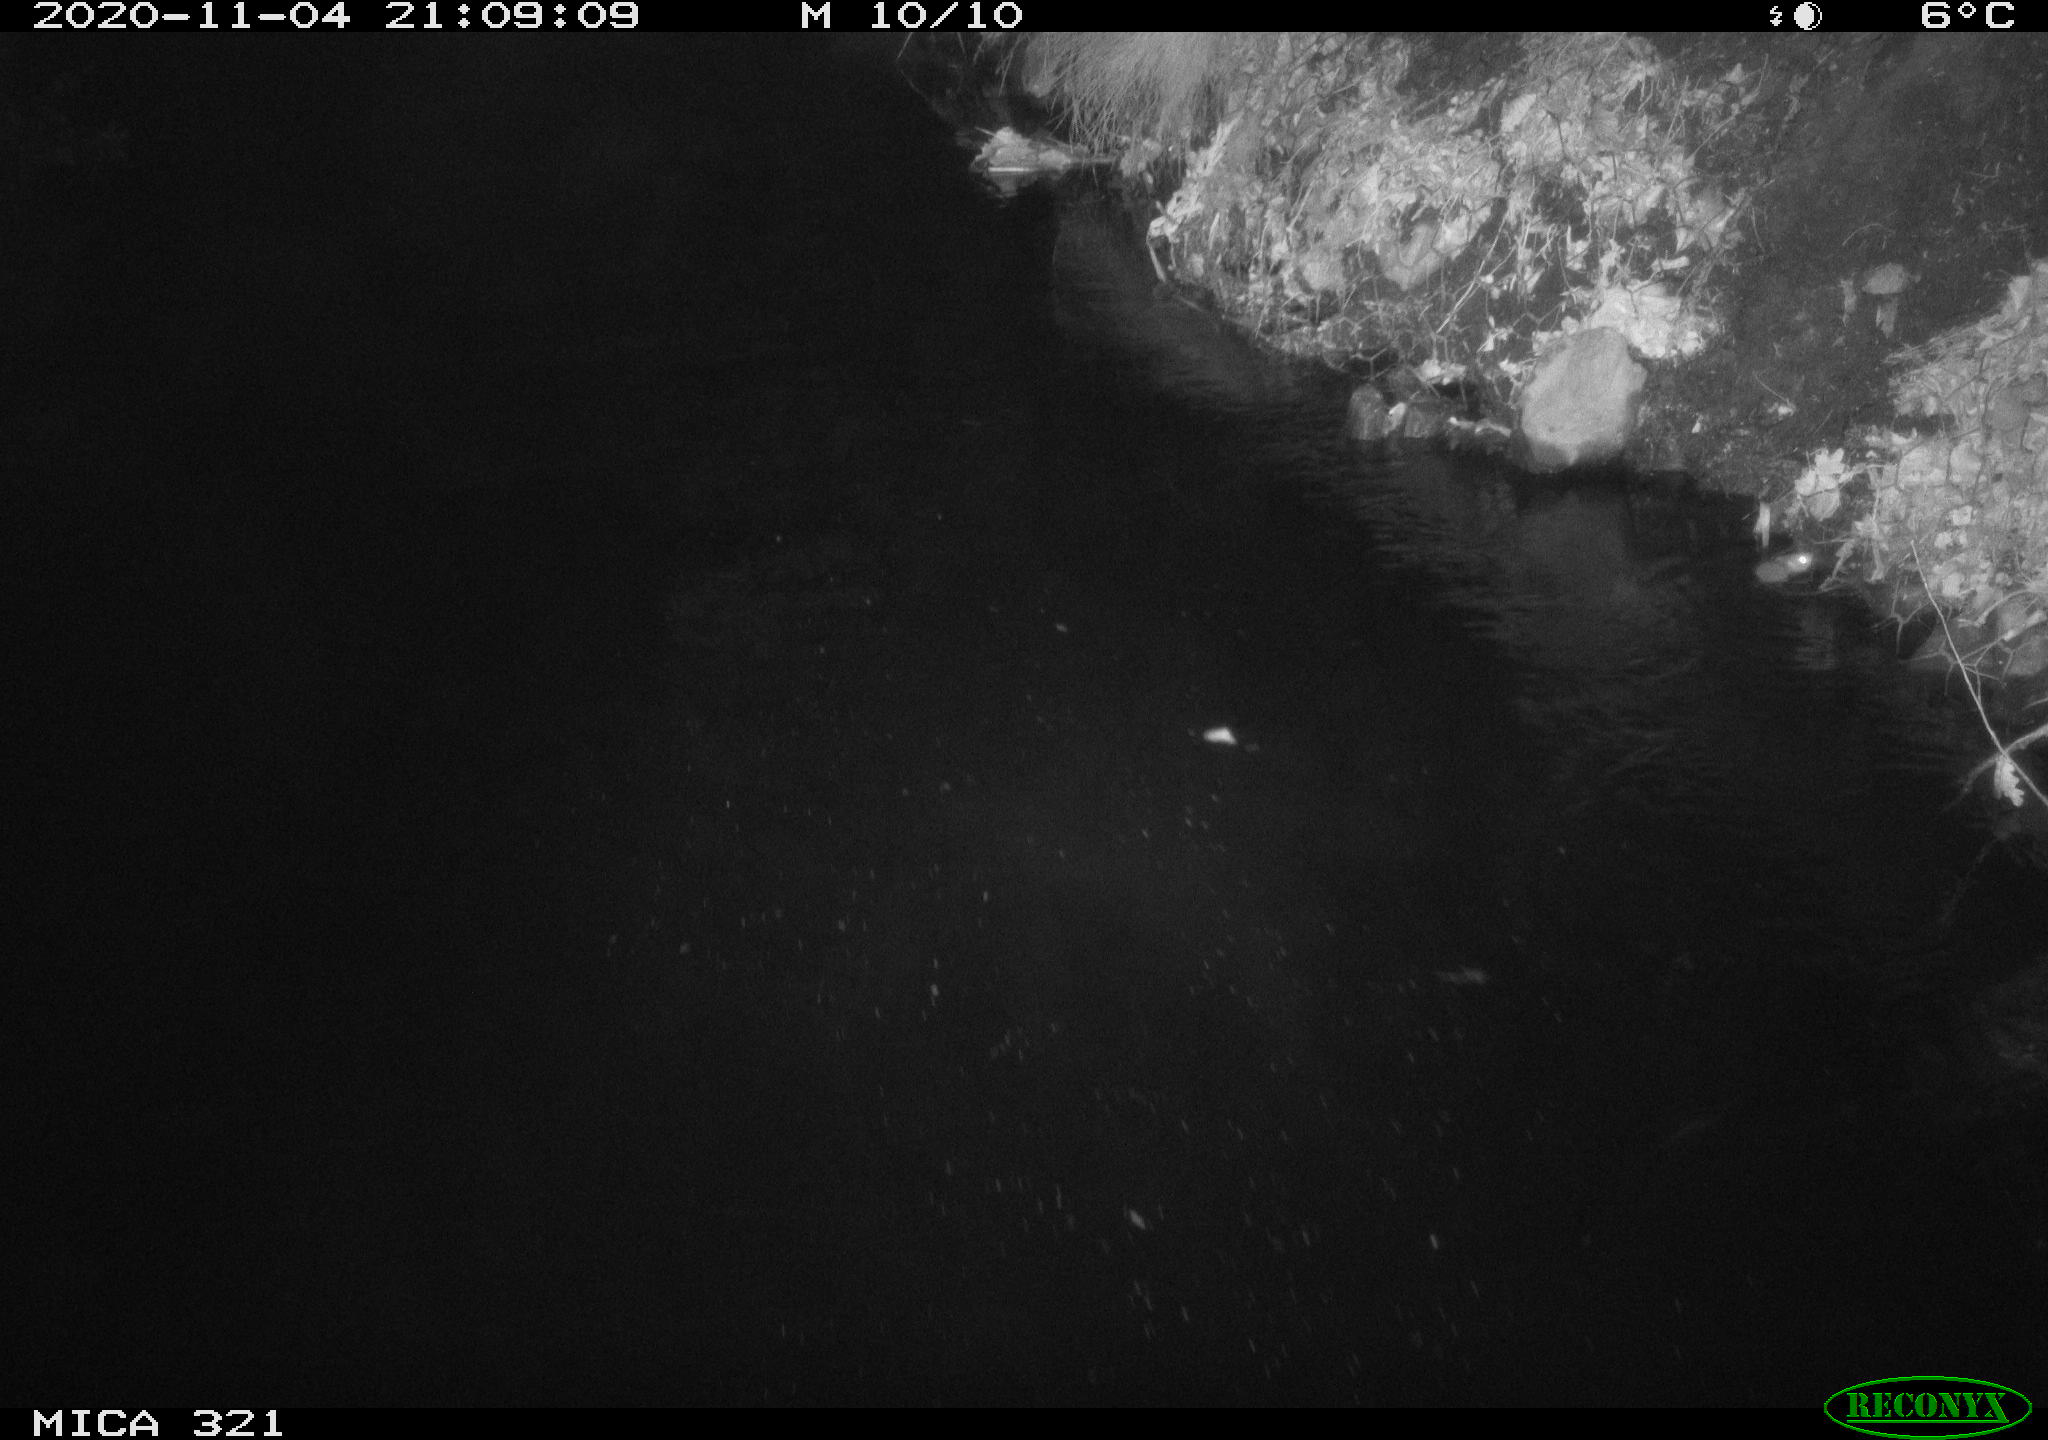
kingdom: Animalia
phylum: Chordata
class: Mammalia
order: Rodentia
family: Muridae
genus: Rattus
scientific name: Rattus norvegicus
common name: Brown rat
